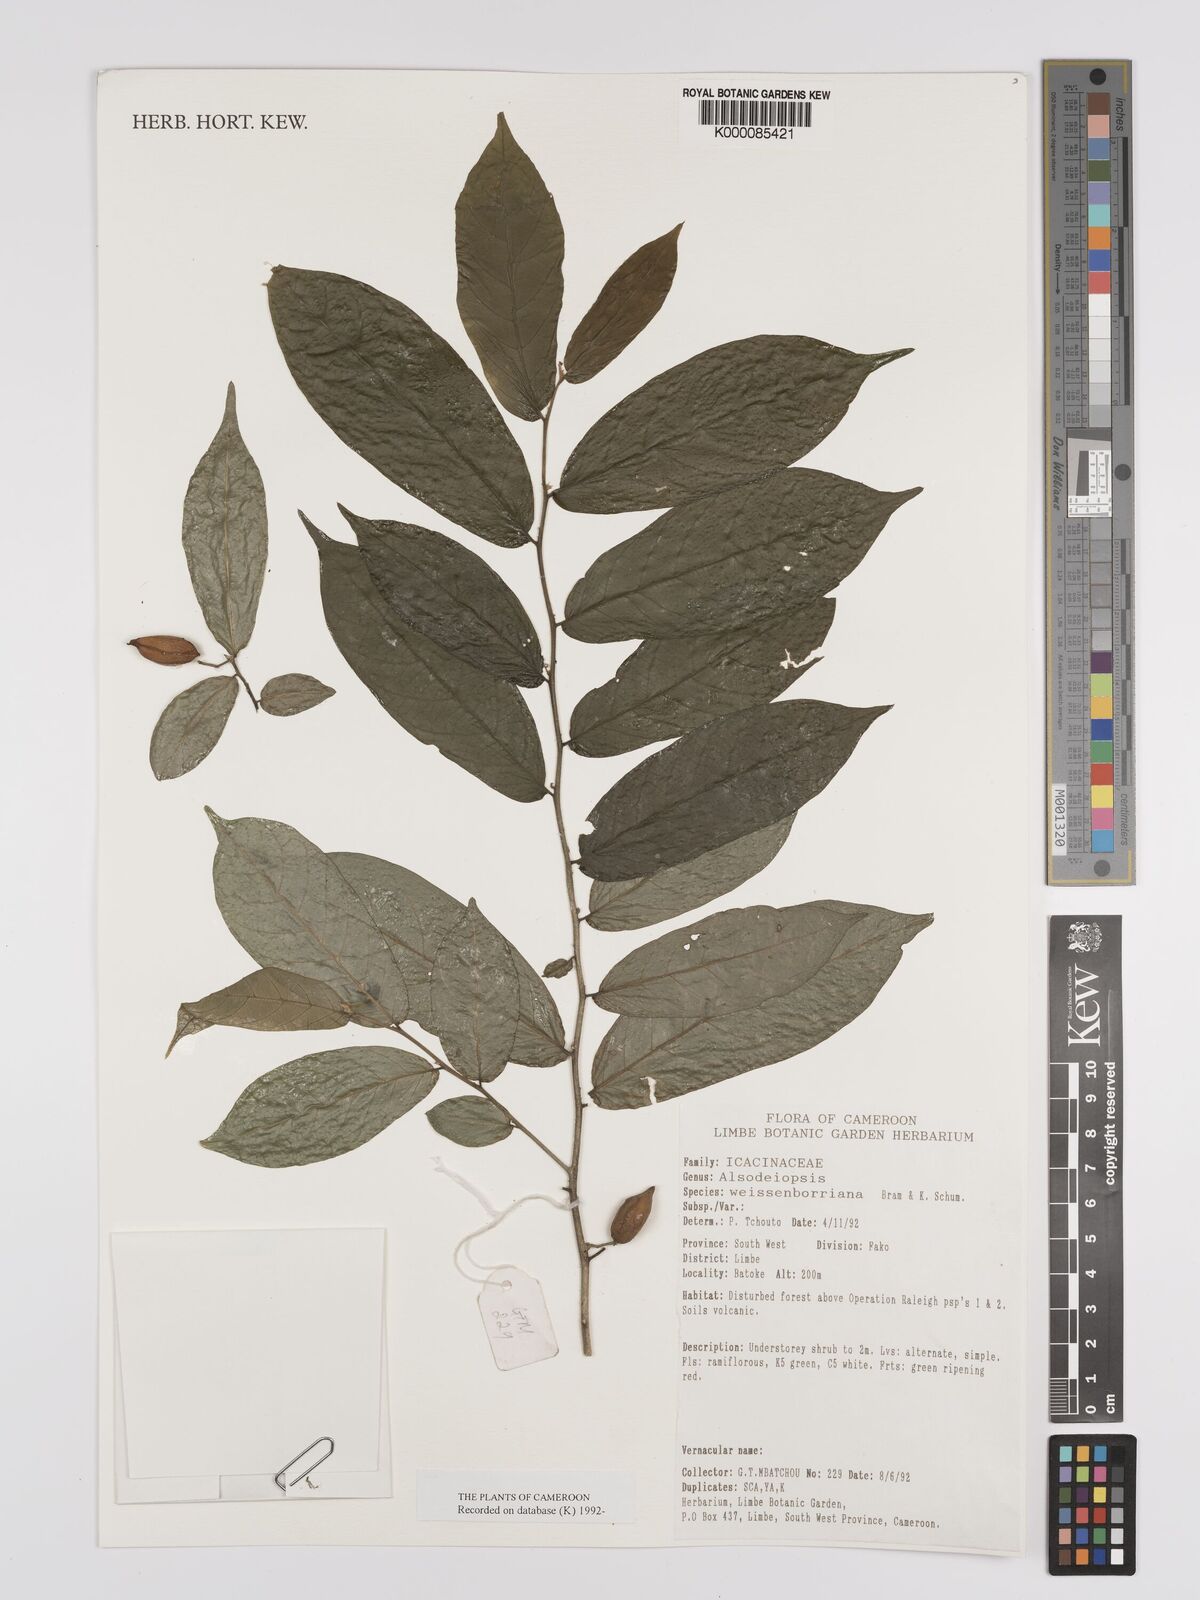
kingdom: Plantae
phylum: Tracheophyta
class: Magnoliopsida
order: Icacinales
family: Icacinaceae
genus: Alsodeiopsis
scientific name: Alsodeiopsis mannii
